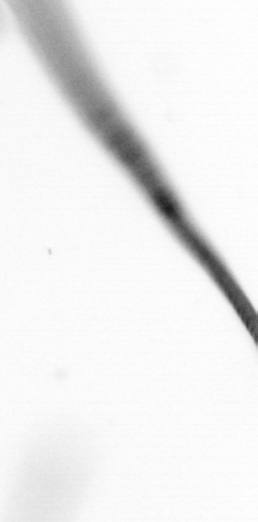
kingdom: Chromista
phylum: Ochrophyta
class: Bacillariophyceae
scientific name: Bacillariophyceae
